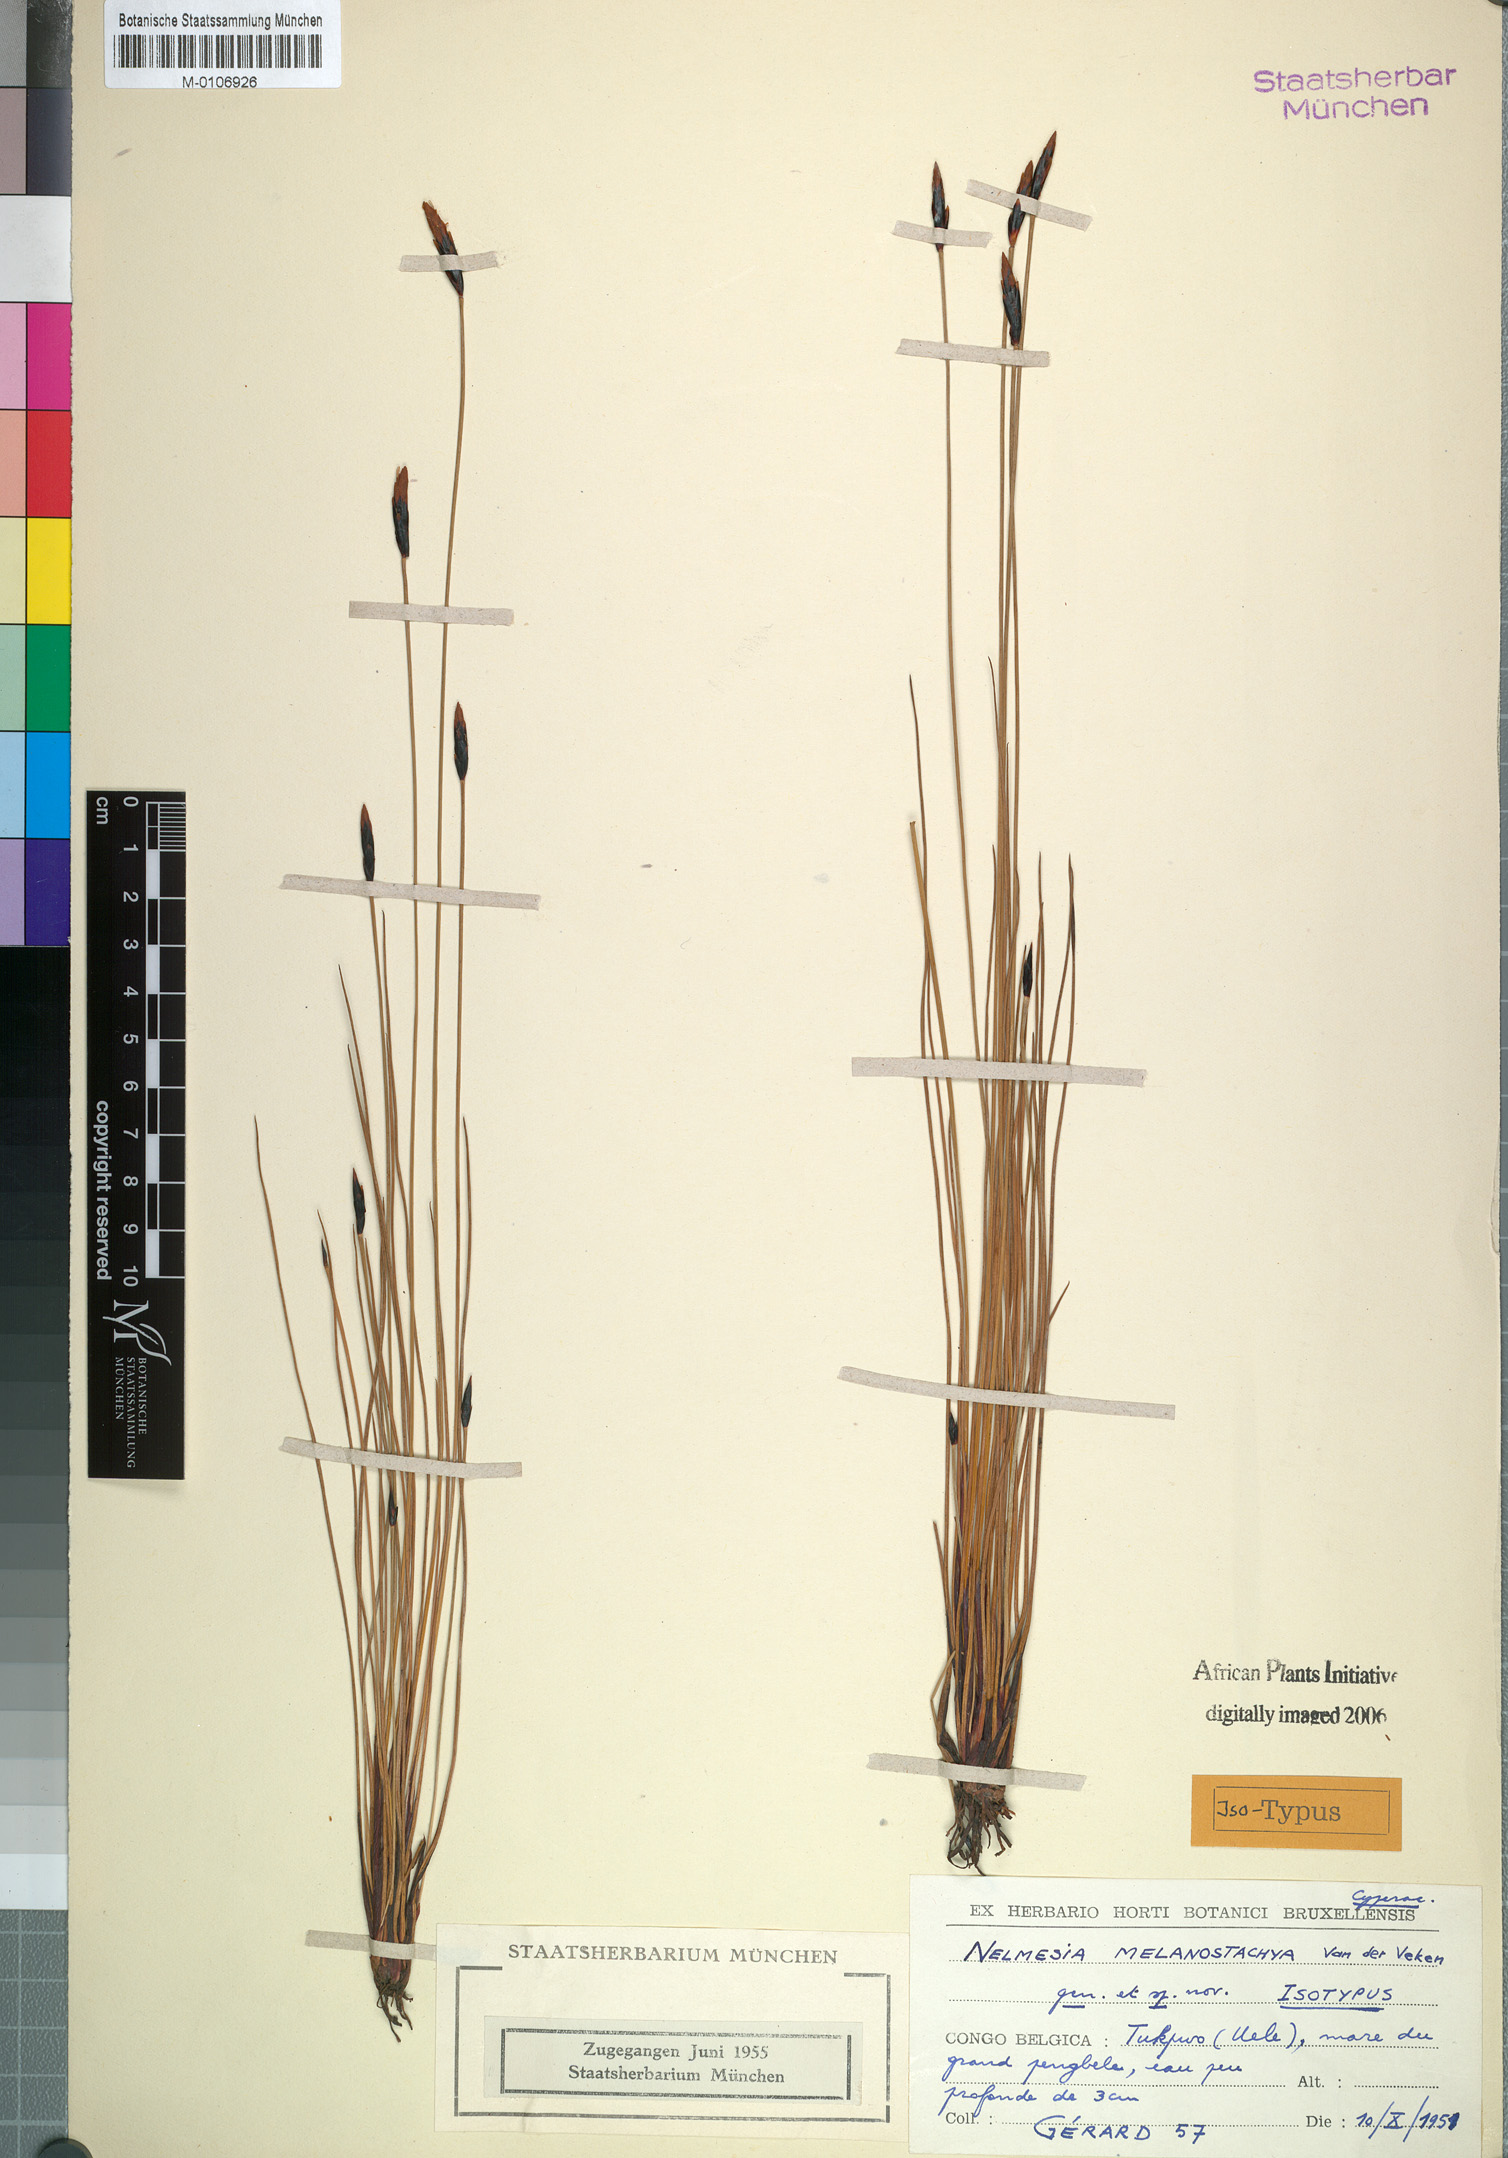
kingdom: Plantae
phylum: Tracheophyta
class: Liliopsida
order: Poales
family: Cyperaceae
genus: Nelmesia
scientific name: Nelmesia melanostachya
